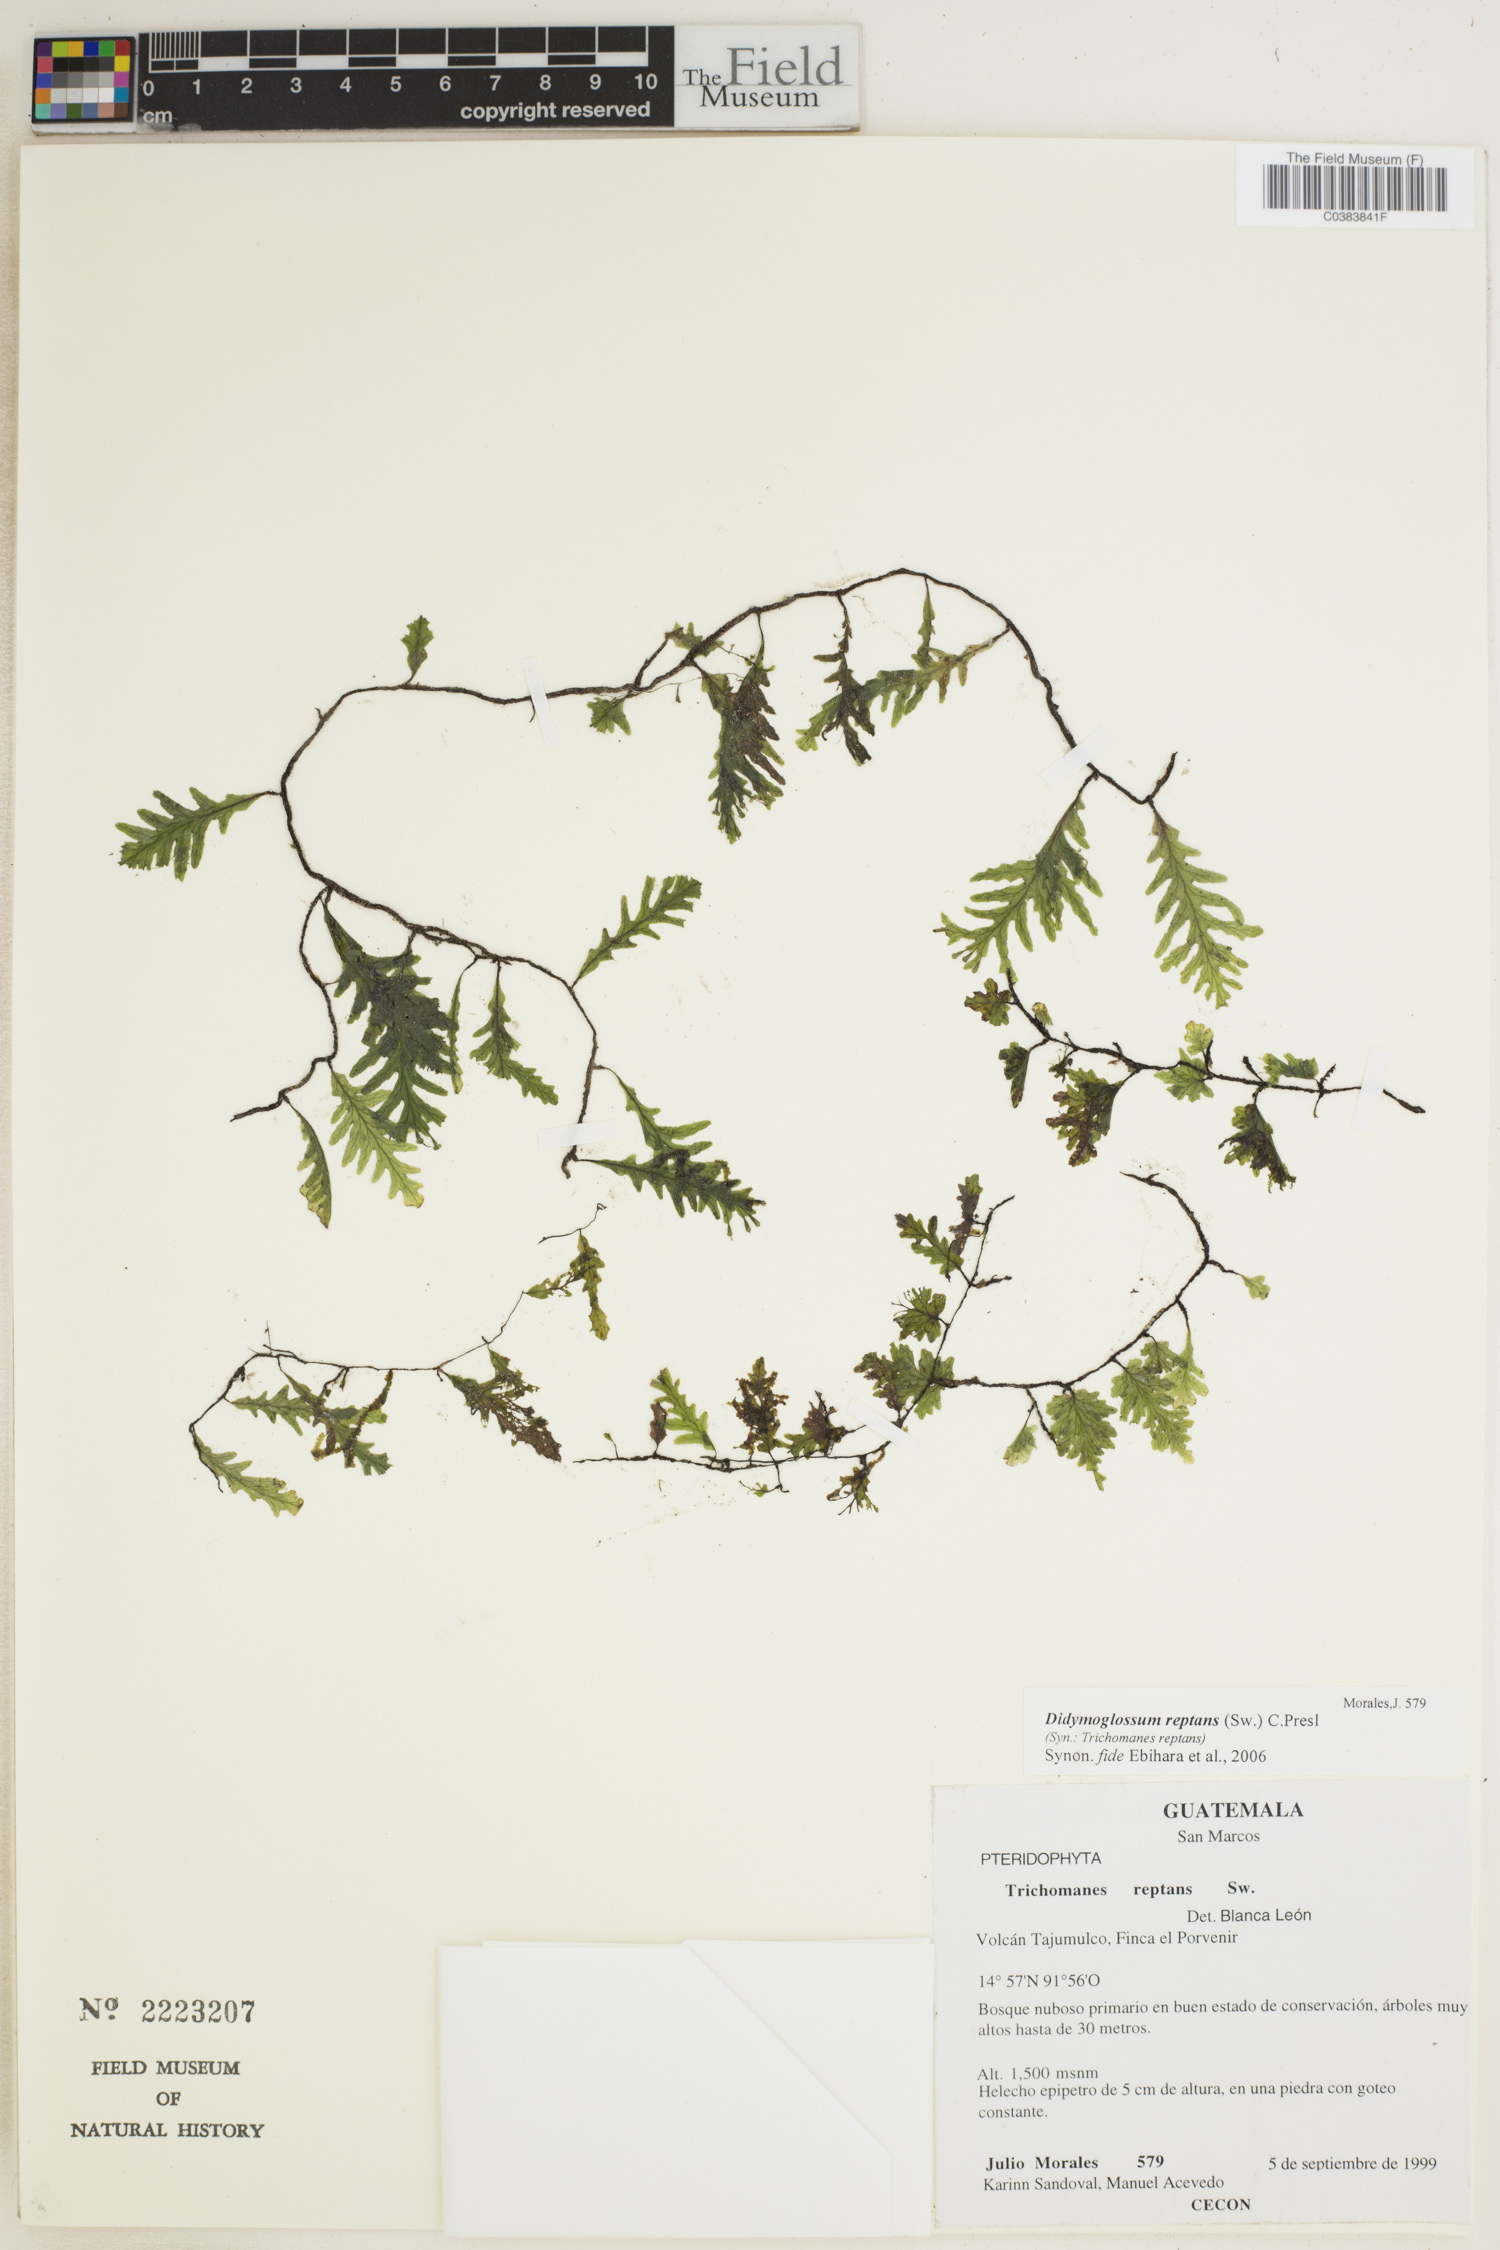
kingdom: Plantae
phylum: Tracheophyta
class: Polypodiopsida
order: Hymenophyllales
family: Hymenophyllaceae
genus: Didymoglossum
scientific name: Didymoglossum reptans
